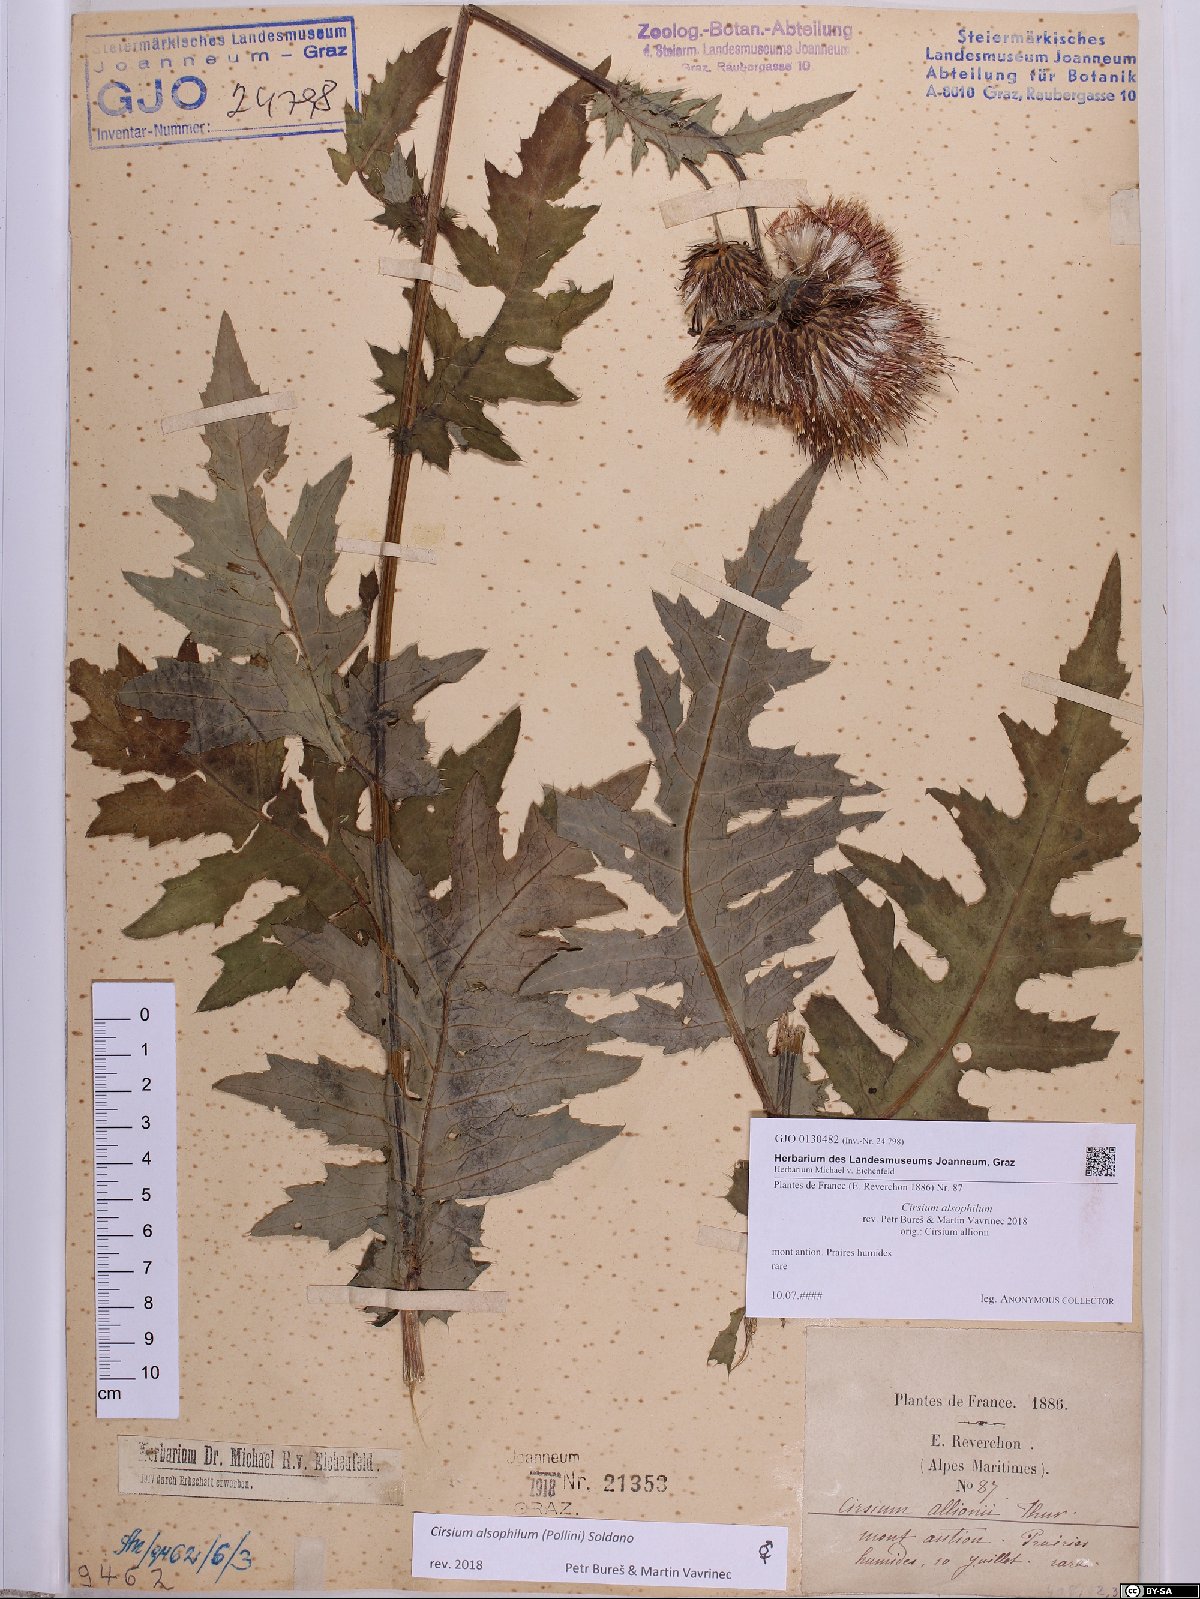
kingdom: Plantae
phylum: Tracheophyta
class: Magnoliopsida
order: Asterales
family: Asteraceae
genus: Cirsium
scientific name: Cirsium alsophilum
